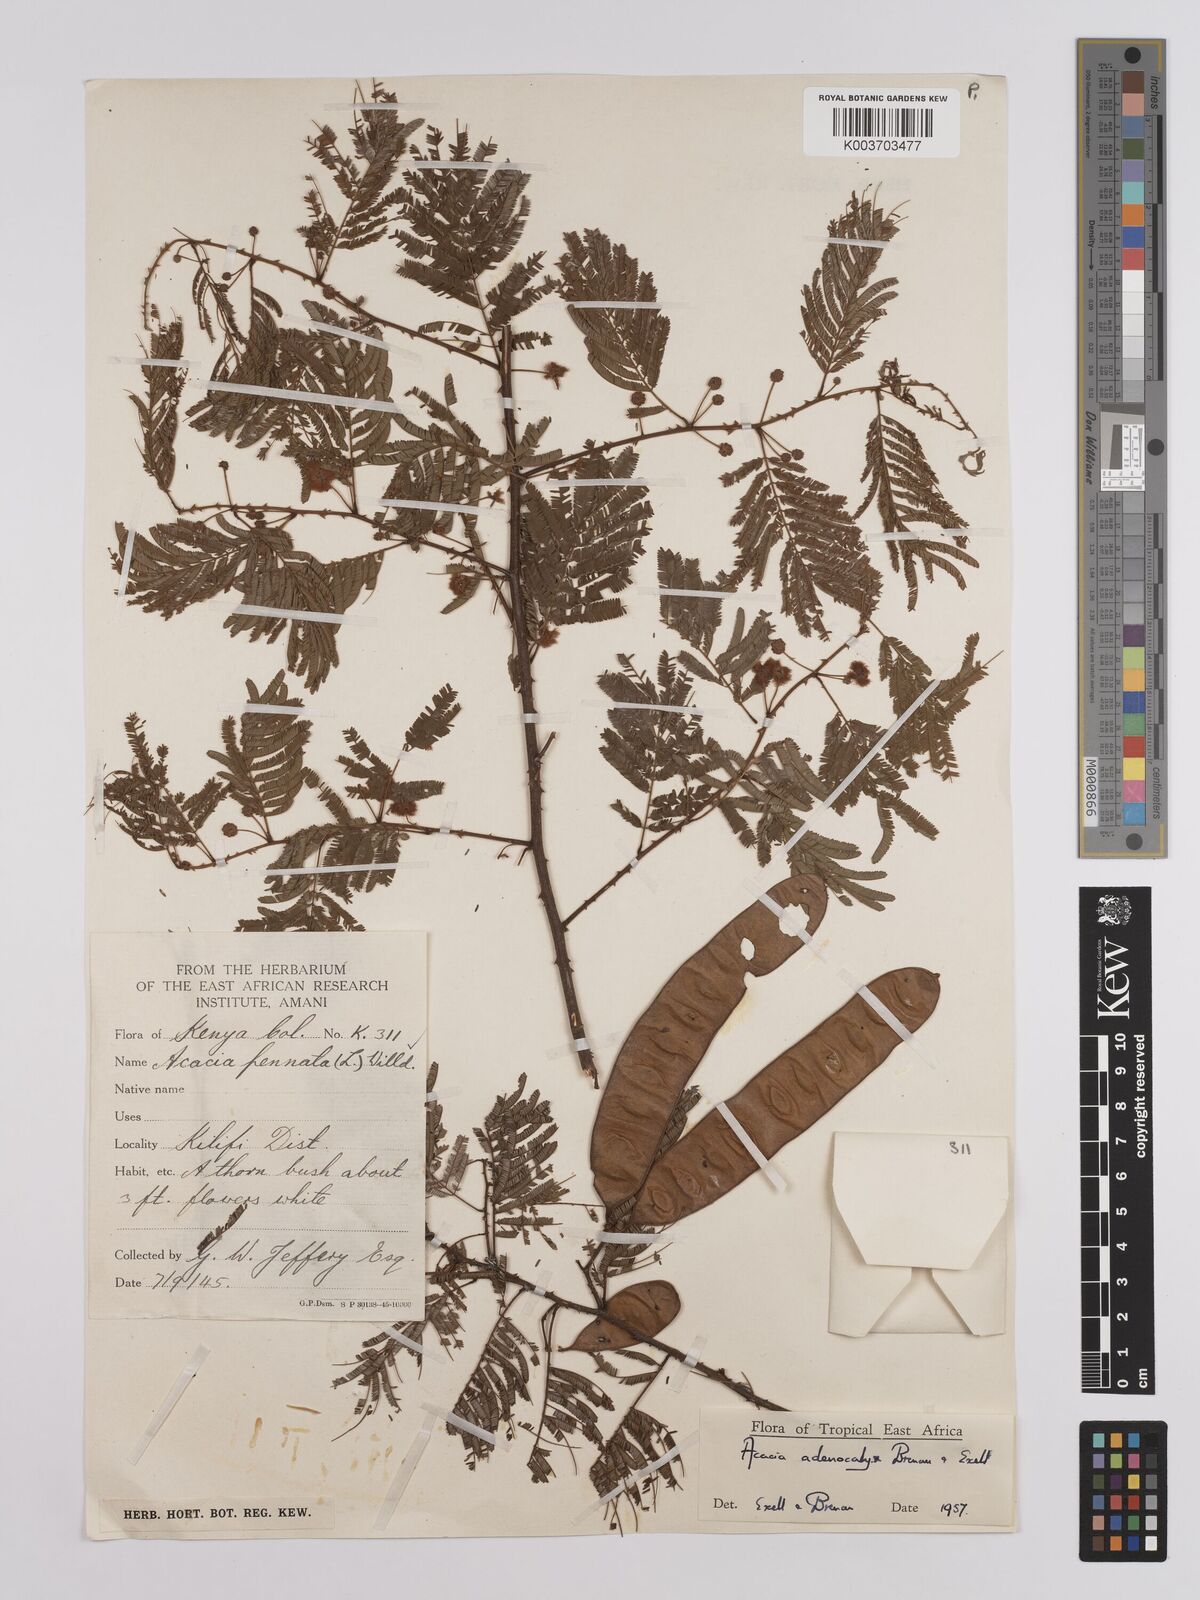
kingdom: Plantae
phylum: Tracheophyta
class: Magnoliopsida
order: Fabales
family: Fabaceae
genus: Senegalia
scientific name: Senegalia adenocalyx
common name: Pfurura
